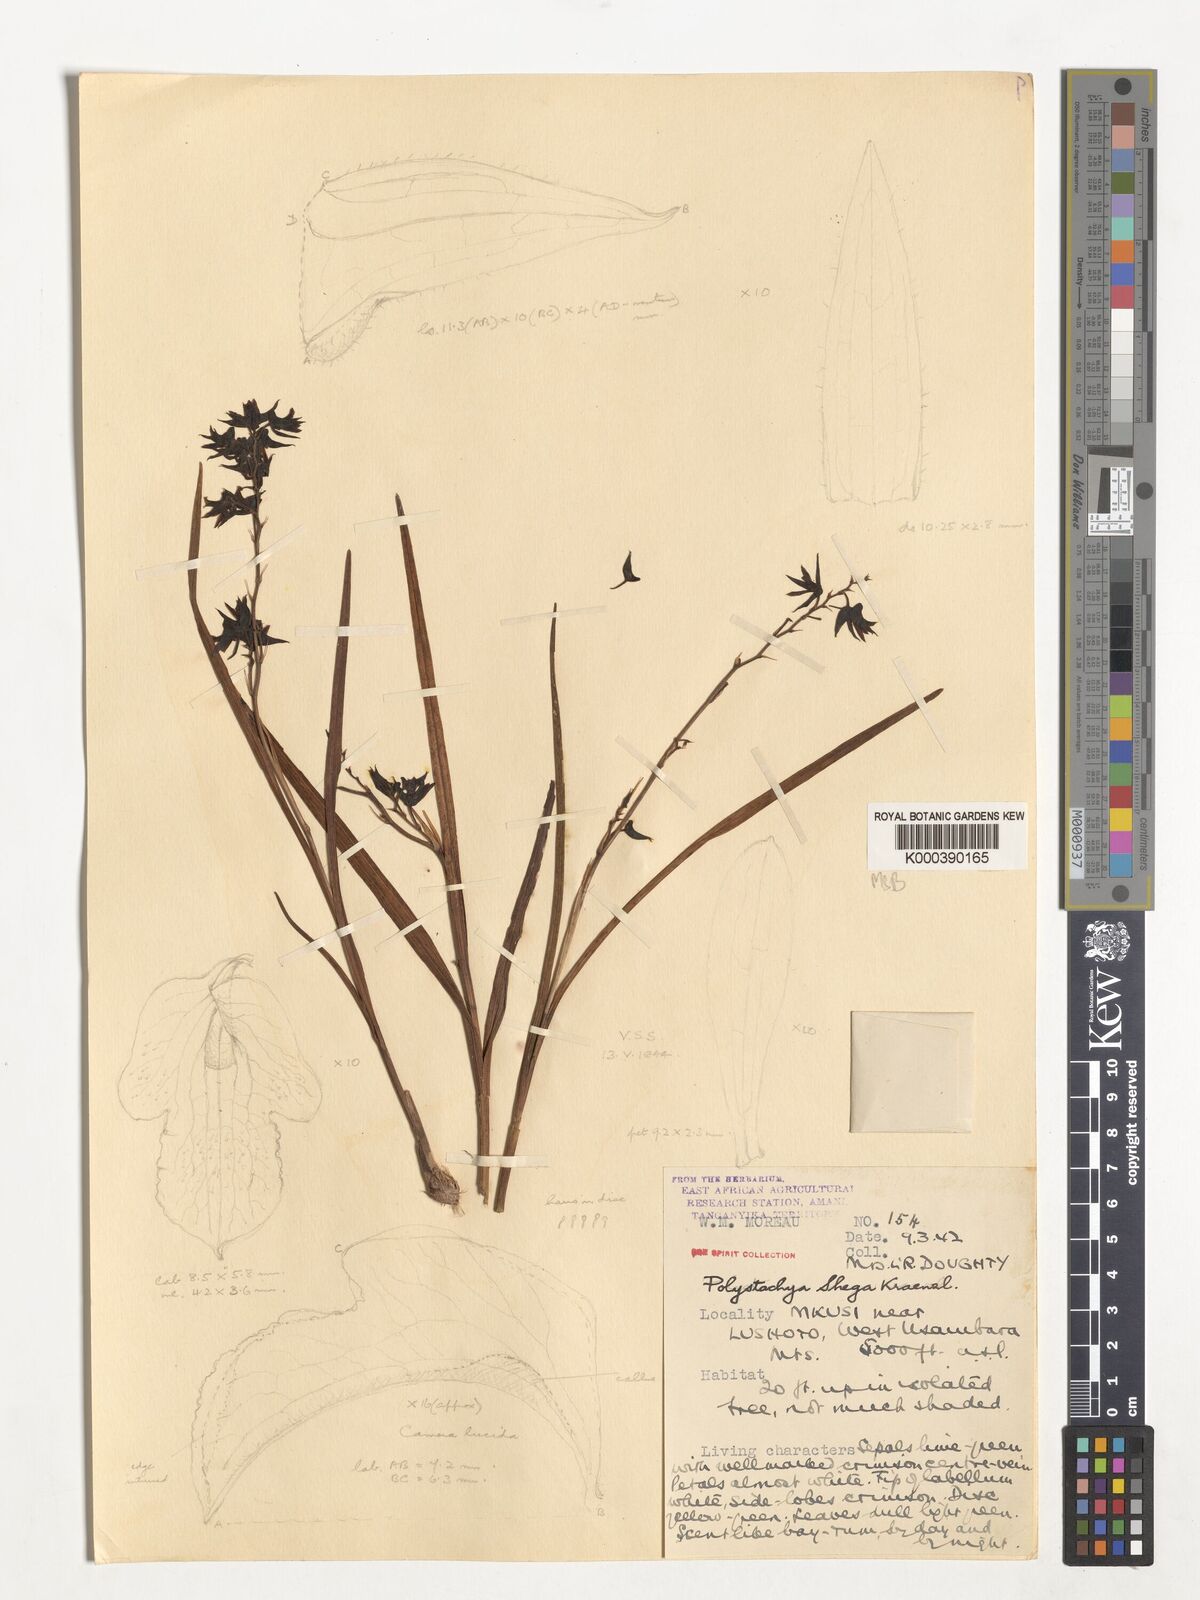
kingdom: Plantae
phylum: Tracheophyta
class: Liliopsida
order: Asparagales
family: Orchidaceae
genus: Polystachya
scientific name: Polystachya shega
